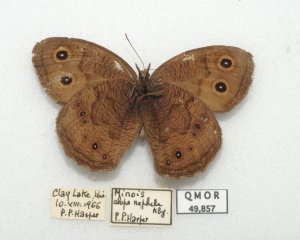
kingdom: Animalia
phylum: Arthropoda
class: Insecta
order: Lepidoptera
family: Nymphalidae
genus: Cercyonis
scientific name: Cercyonis pegala
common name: Common Wood-Nymph
